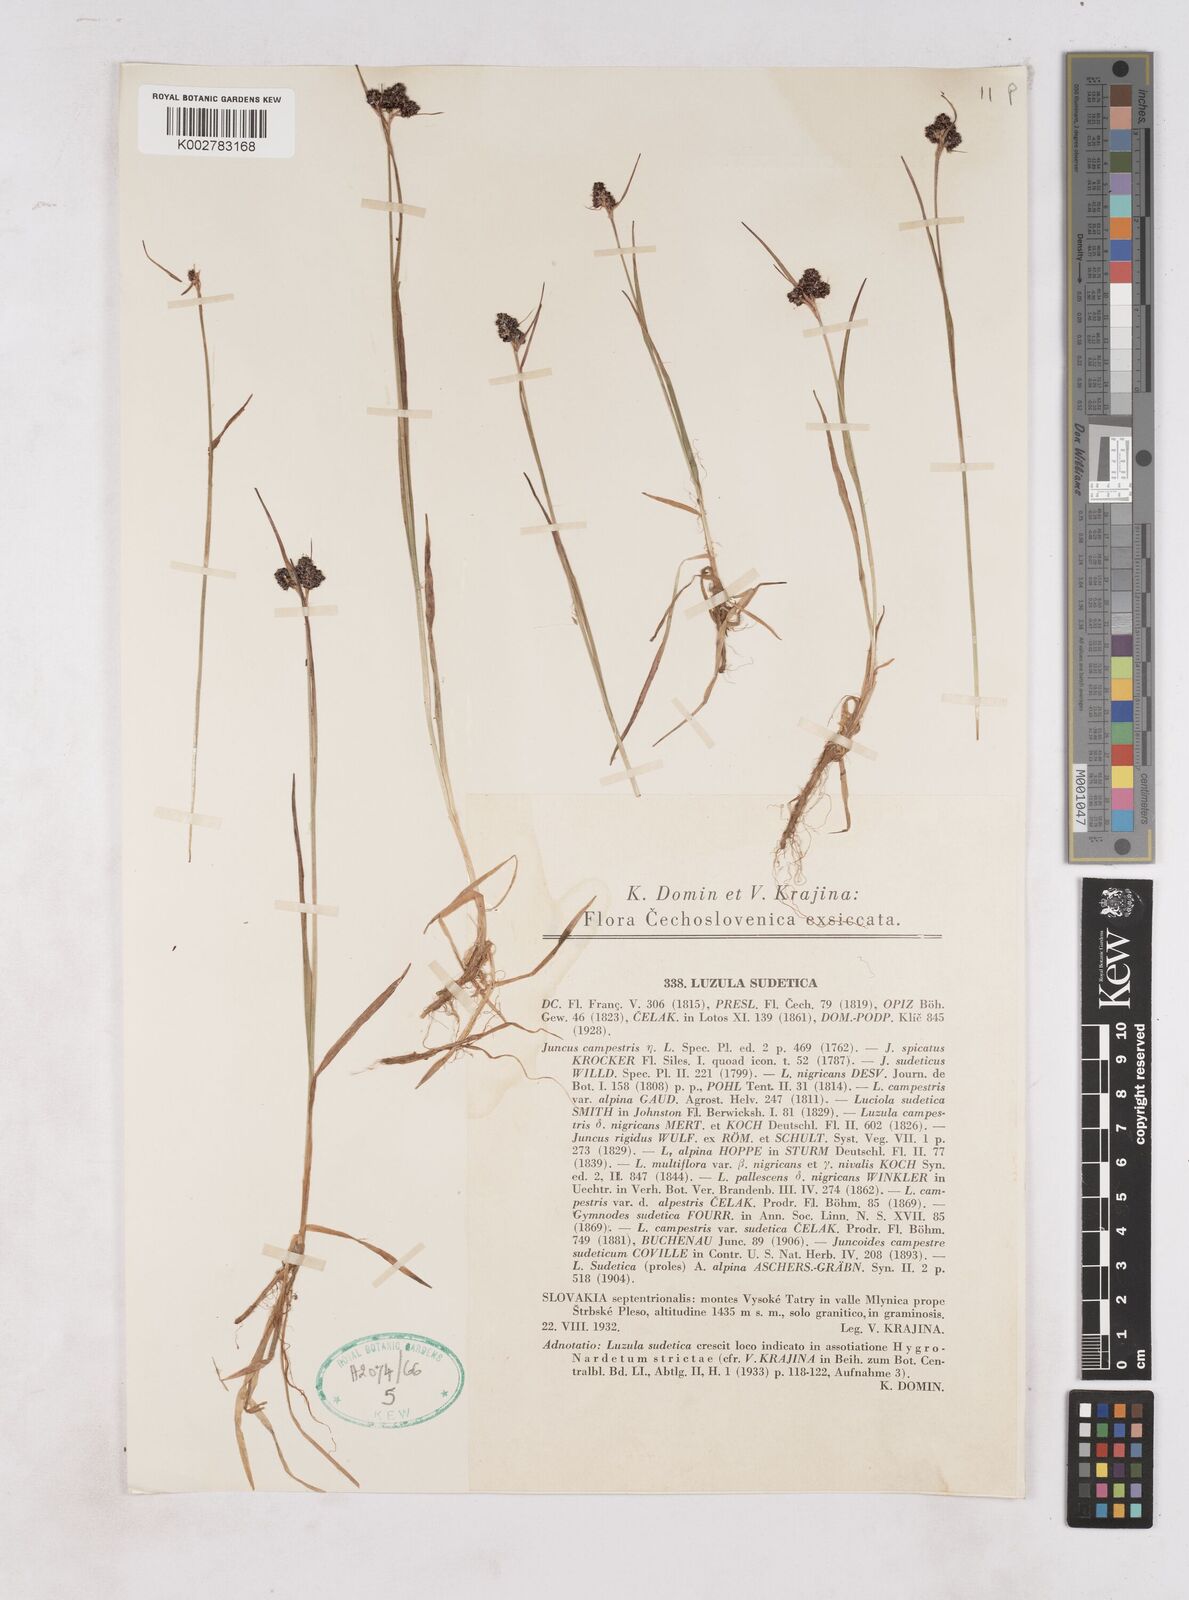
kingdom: Plantae
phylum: Tracheophyta
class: Liliopsida
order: Poales
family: Juncaceae
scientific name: Juncaceae
